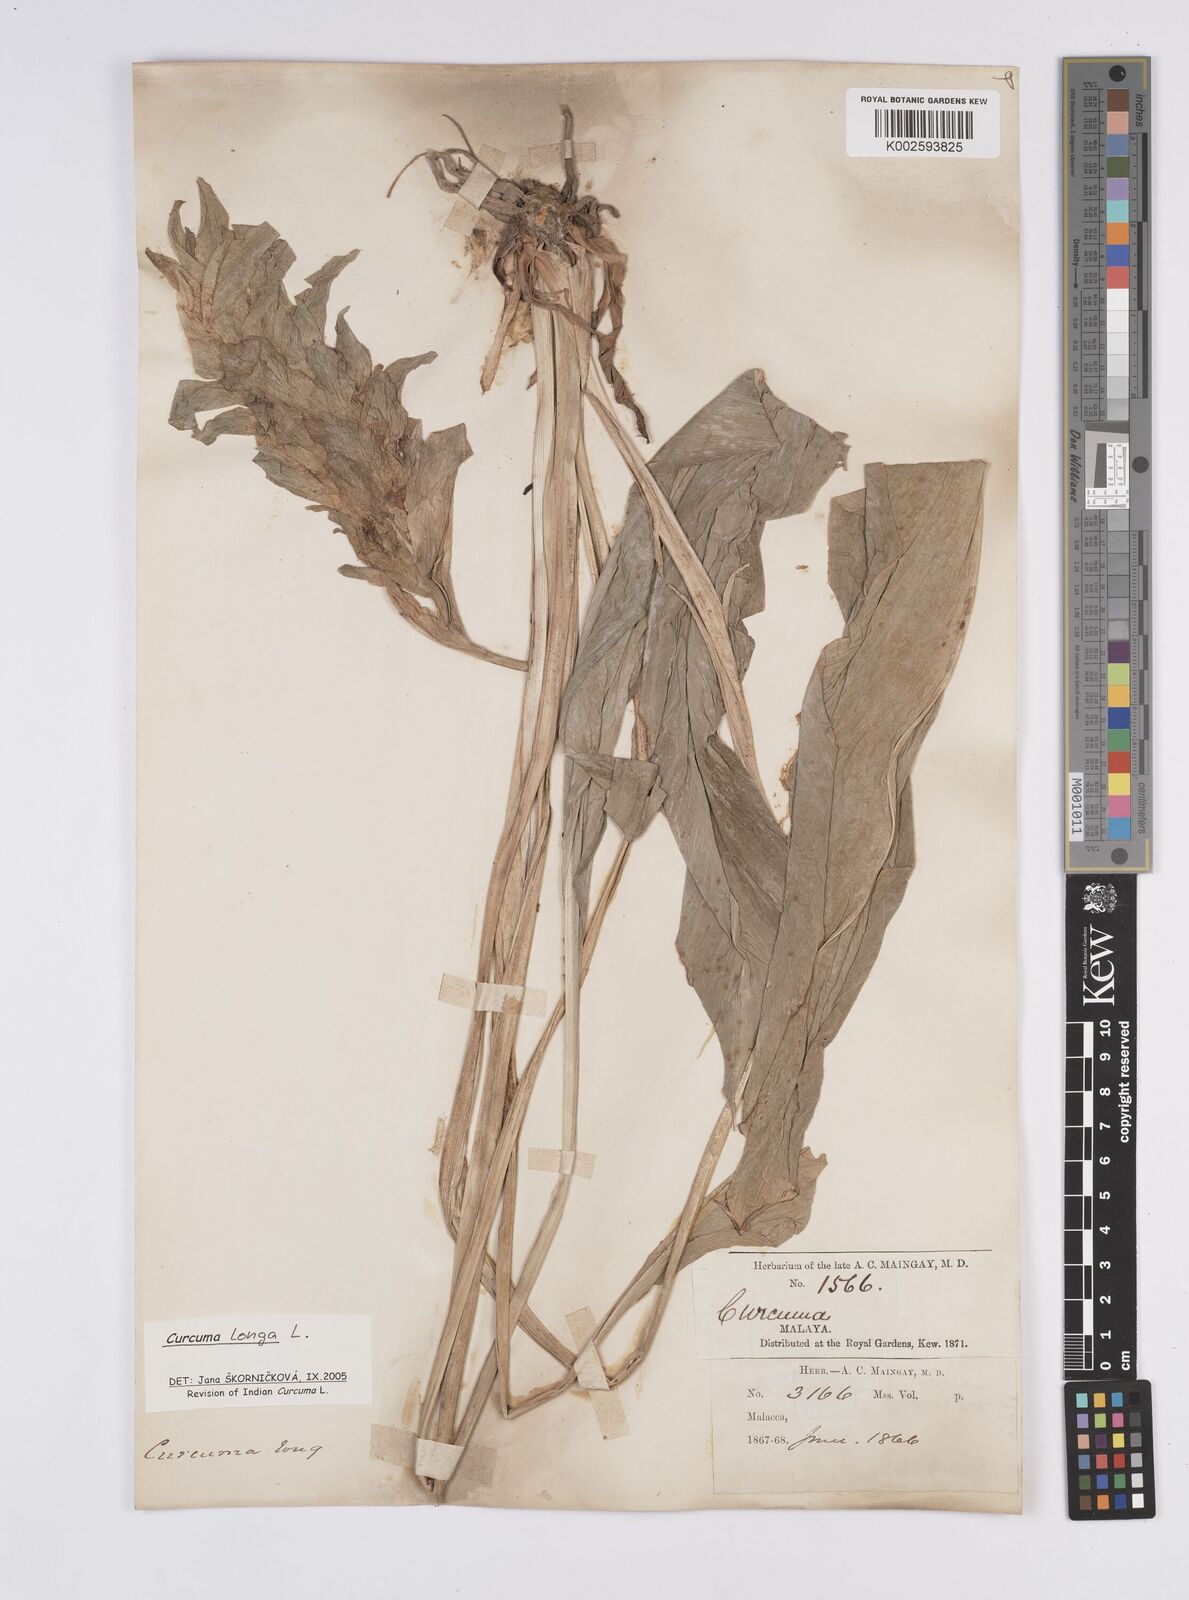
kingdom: Plantae
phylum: Tracheophyta
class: Liliopsida
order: Zingiberales
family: Zingiberaceae
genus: Curcuma
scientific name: Curcuma longa
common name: Turmeric
